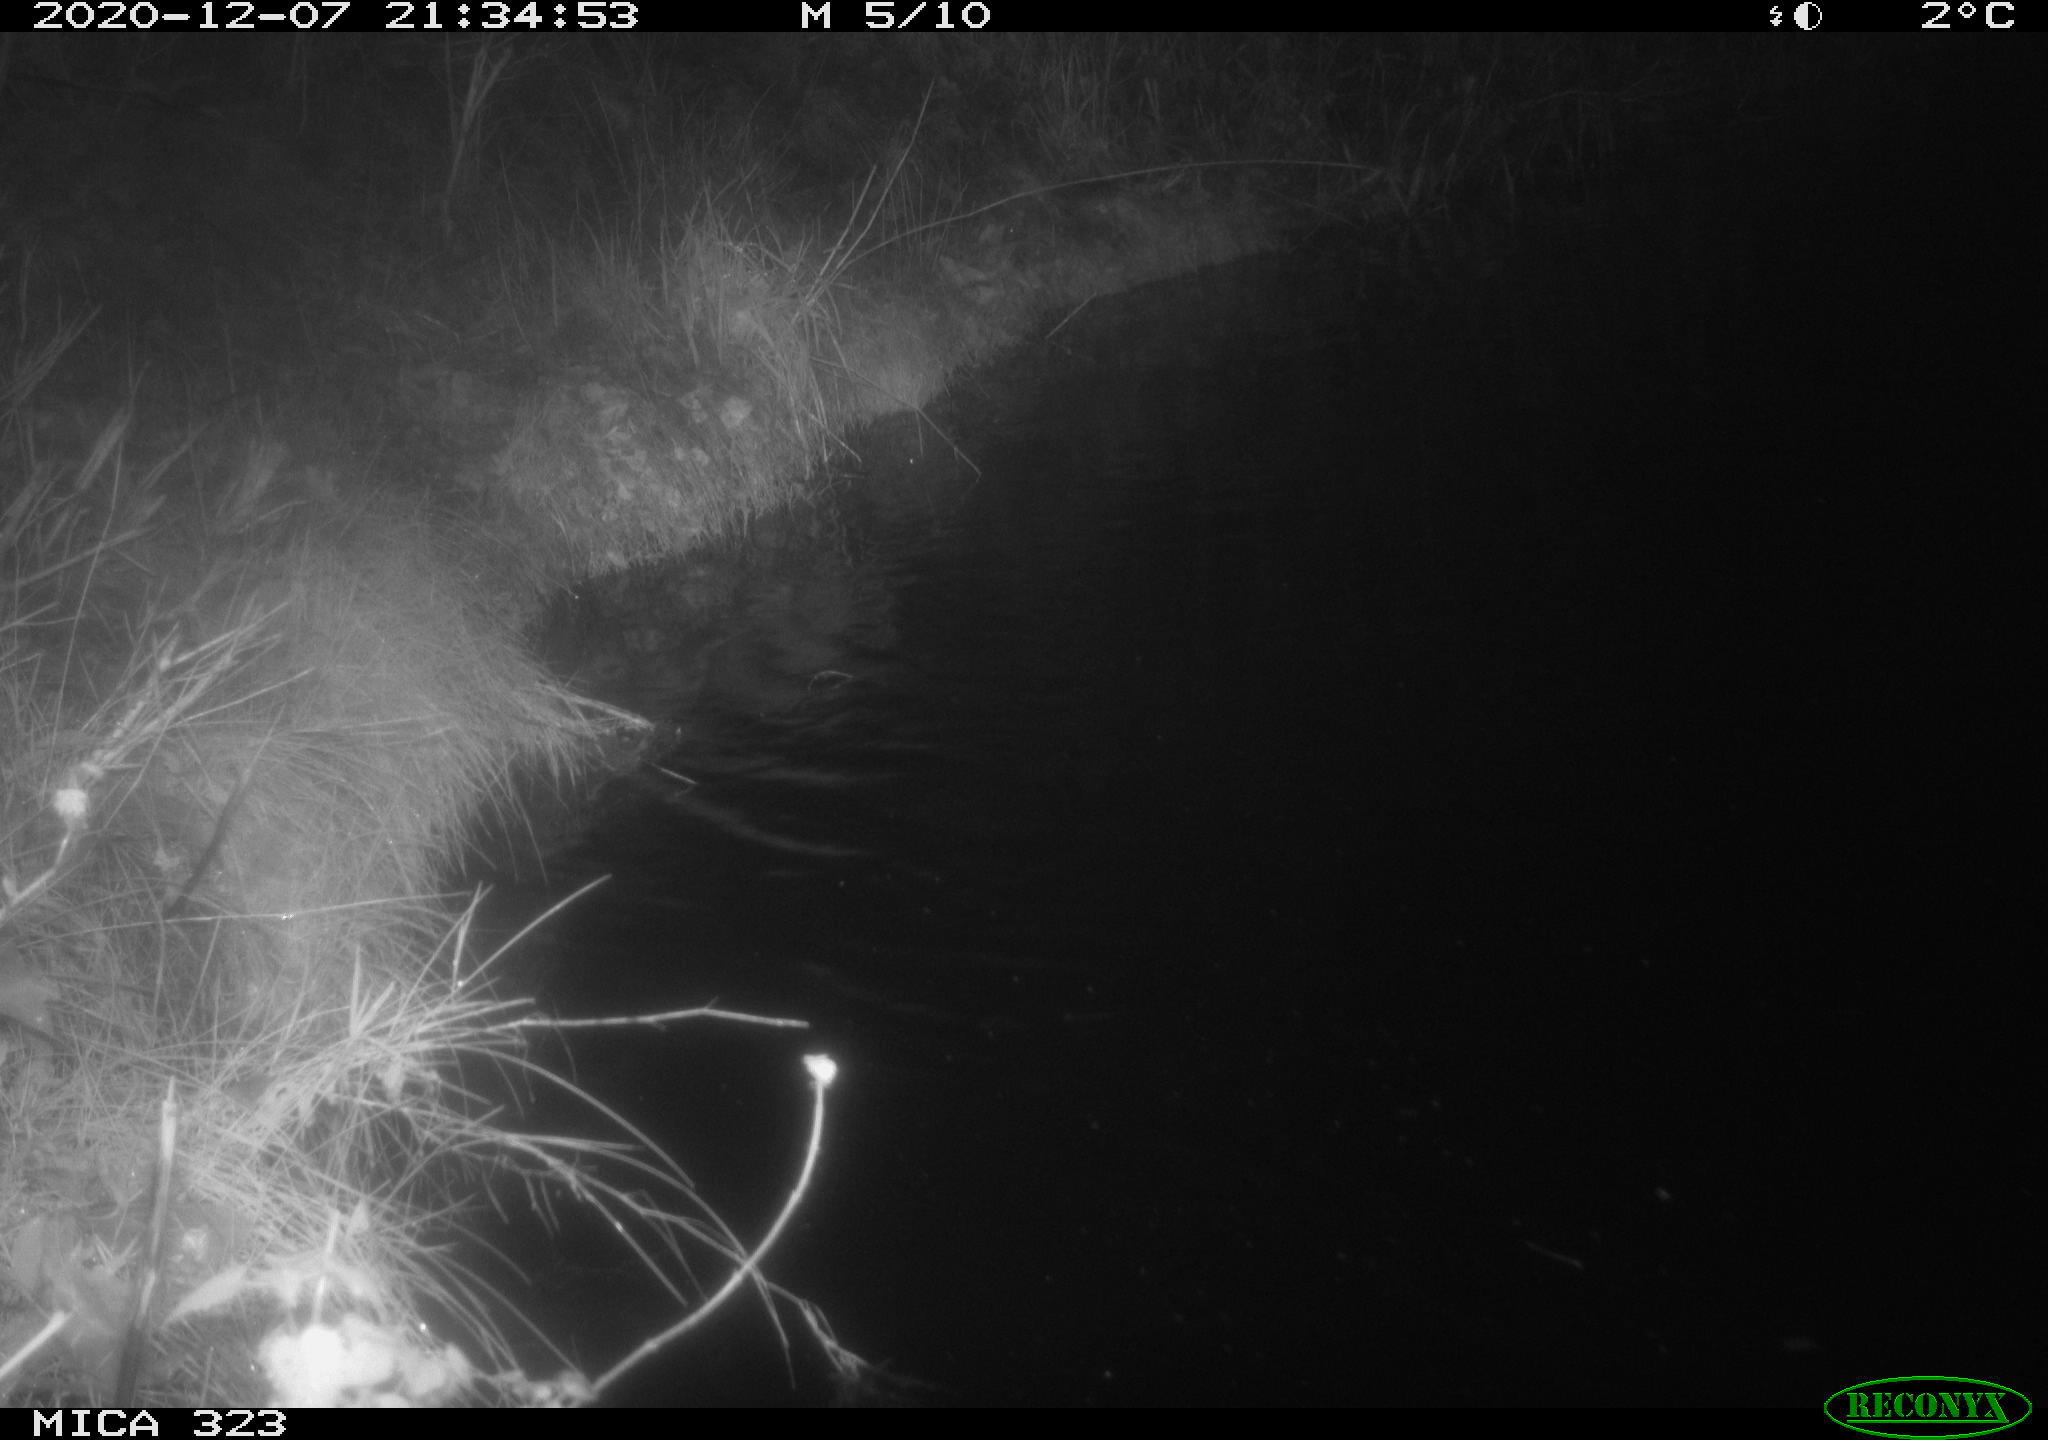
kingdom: Animalia
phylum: Chordata
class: Mammalia
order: Rodentia
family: Myocastoridae
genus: Myocastor
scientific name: Myocastor coypus
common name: Coypu
